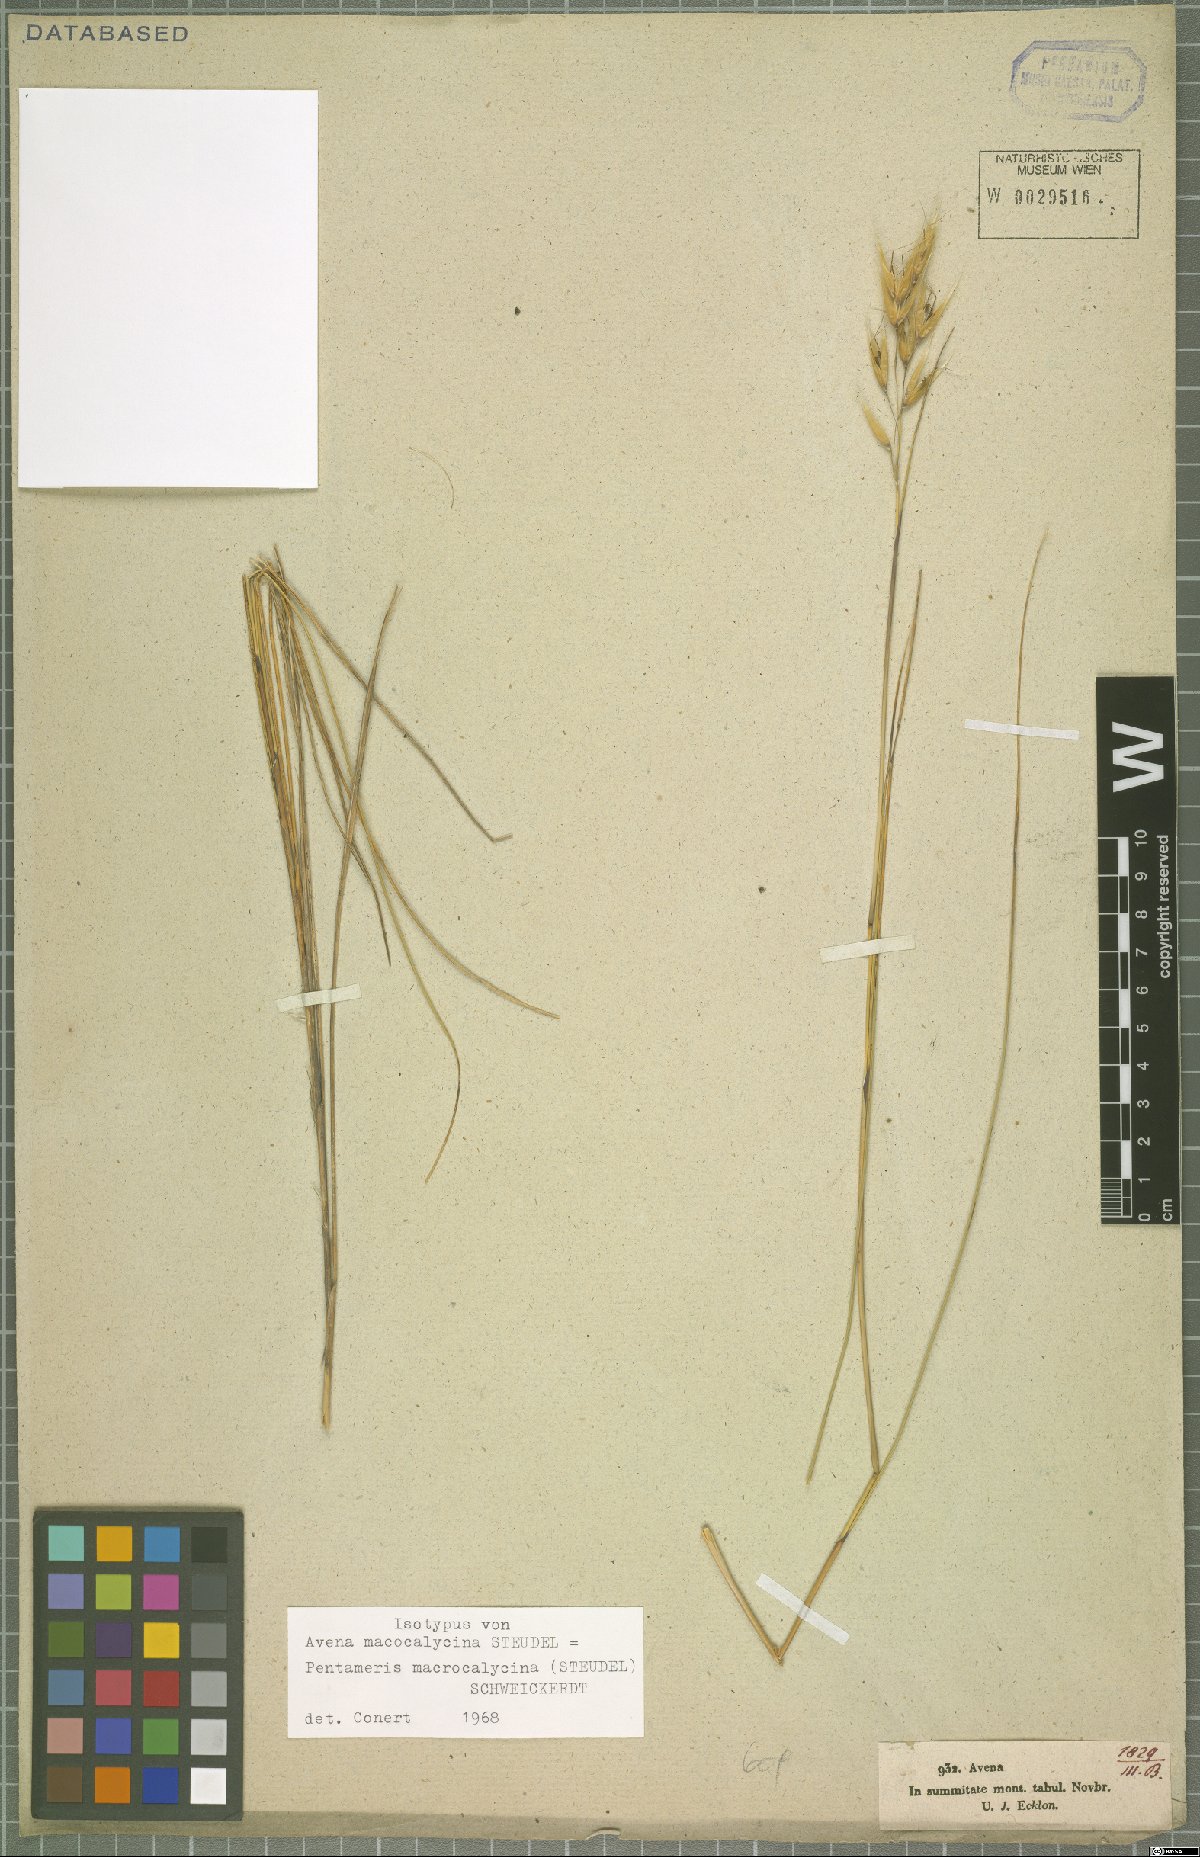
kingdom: Plantae
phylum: Tracheophyta
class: Liliopsida
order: Poales
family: Poaceae
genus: Pentameris
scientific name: Pentameris macrocalycina
